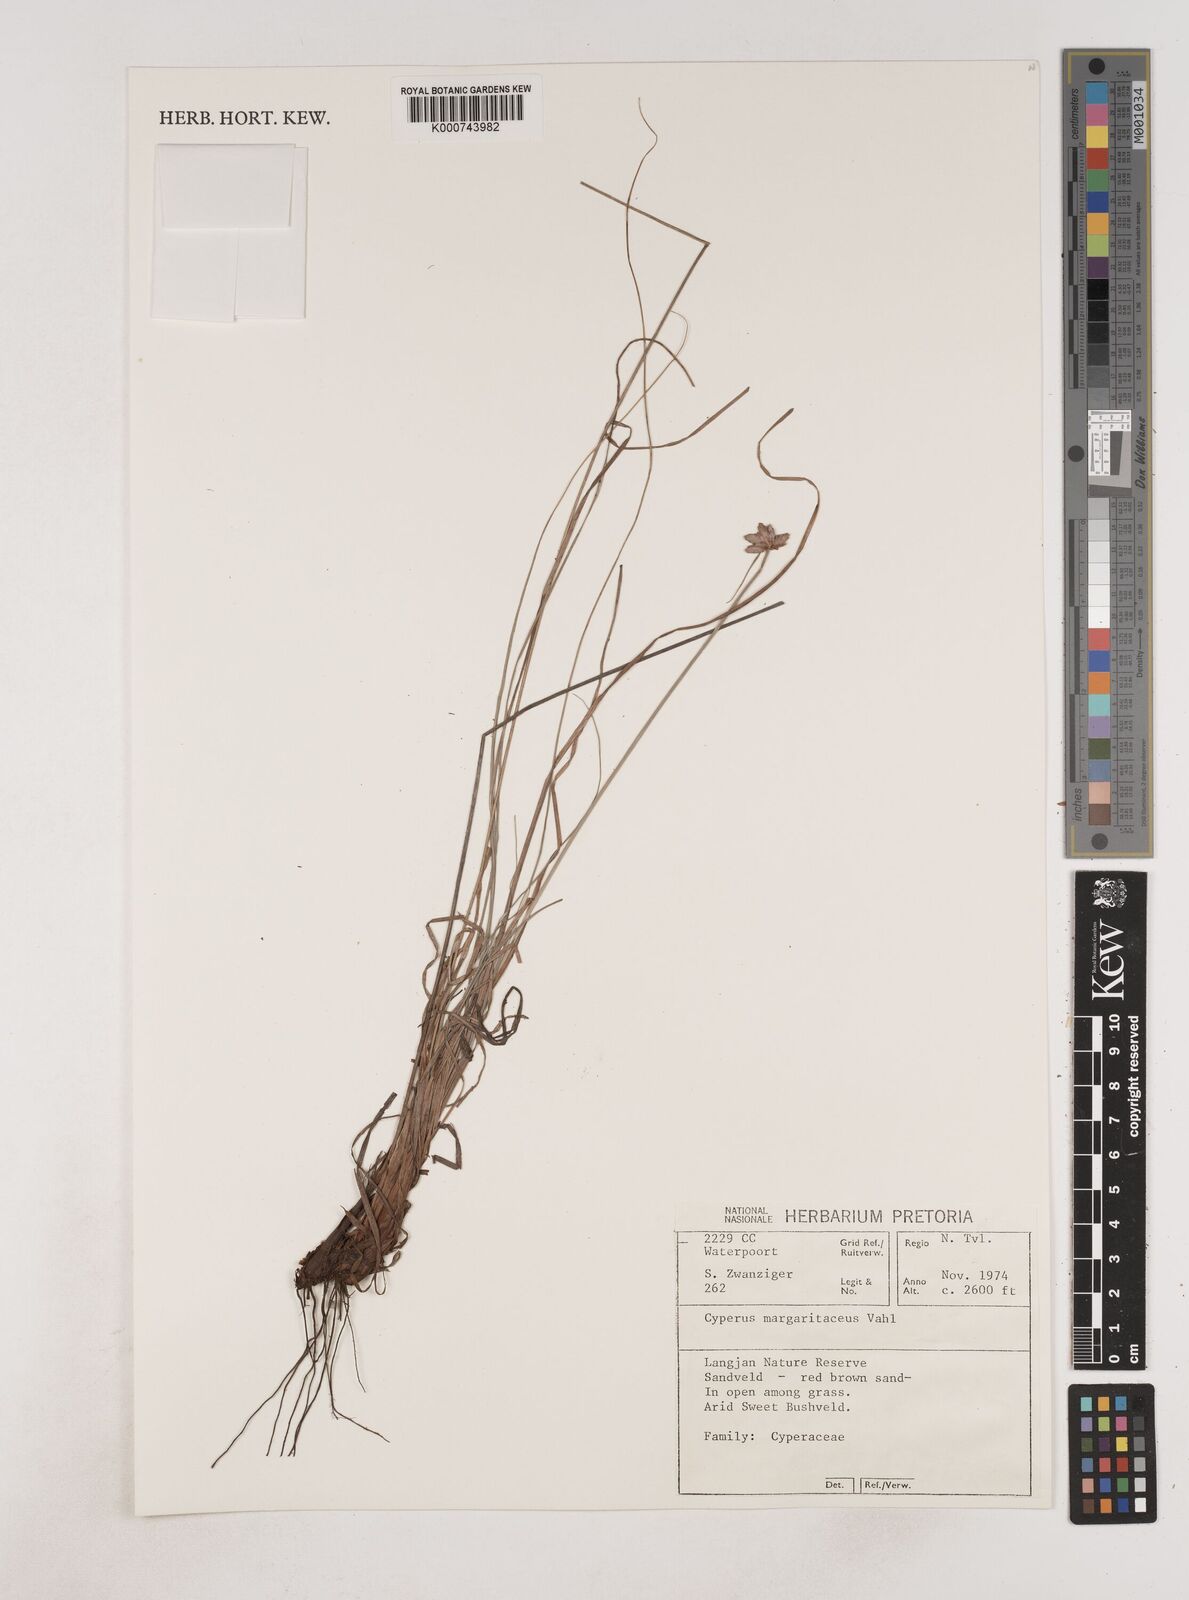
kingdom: Plantae
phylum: Tracheophyta
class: Liliopsida
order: Poales
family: Cyperaceae
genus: Cyperus
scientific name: Cyperus margaritaceus
